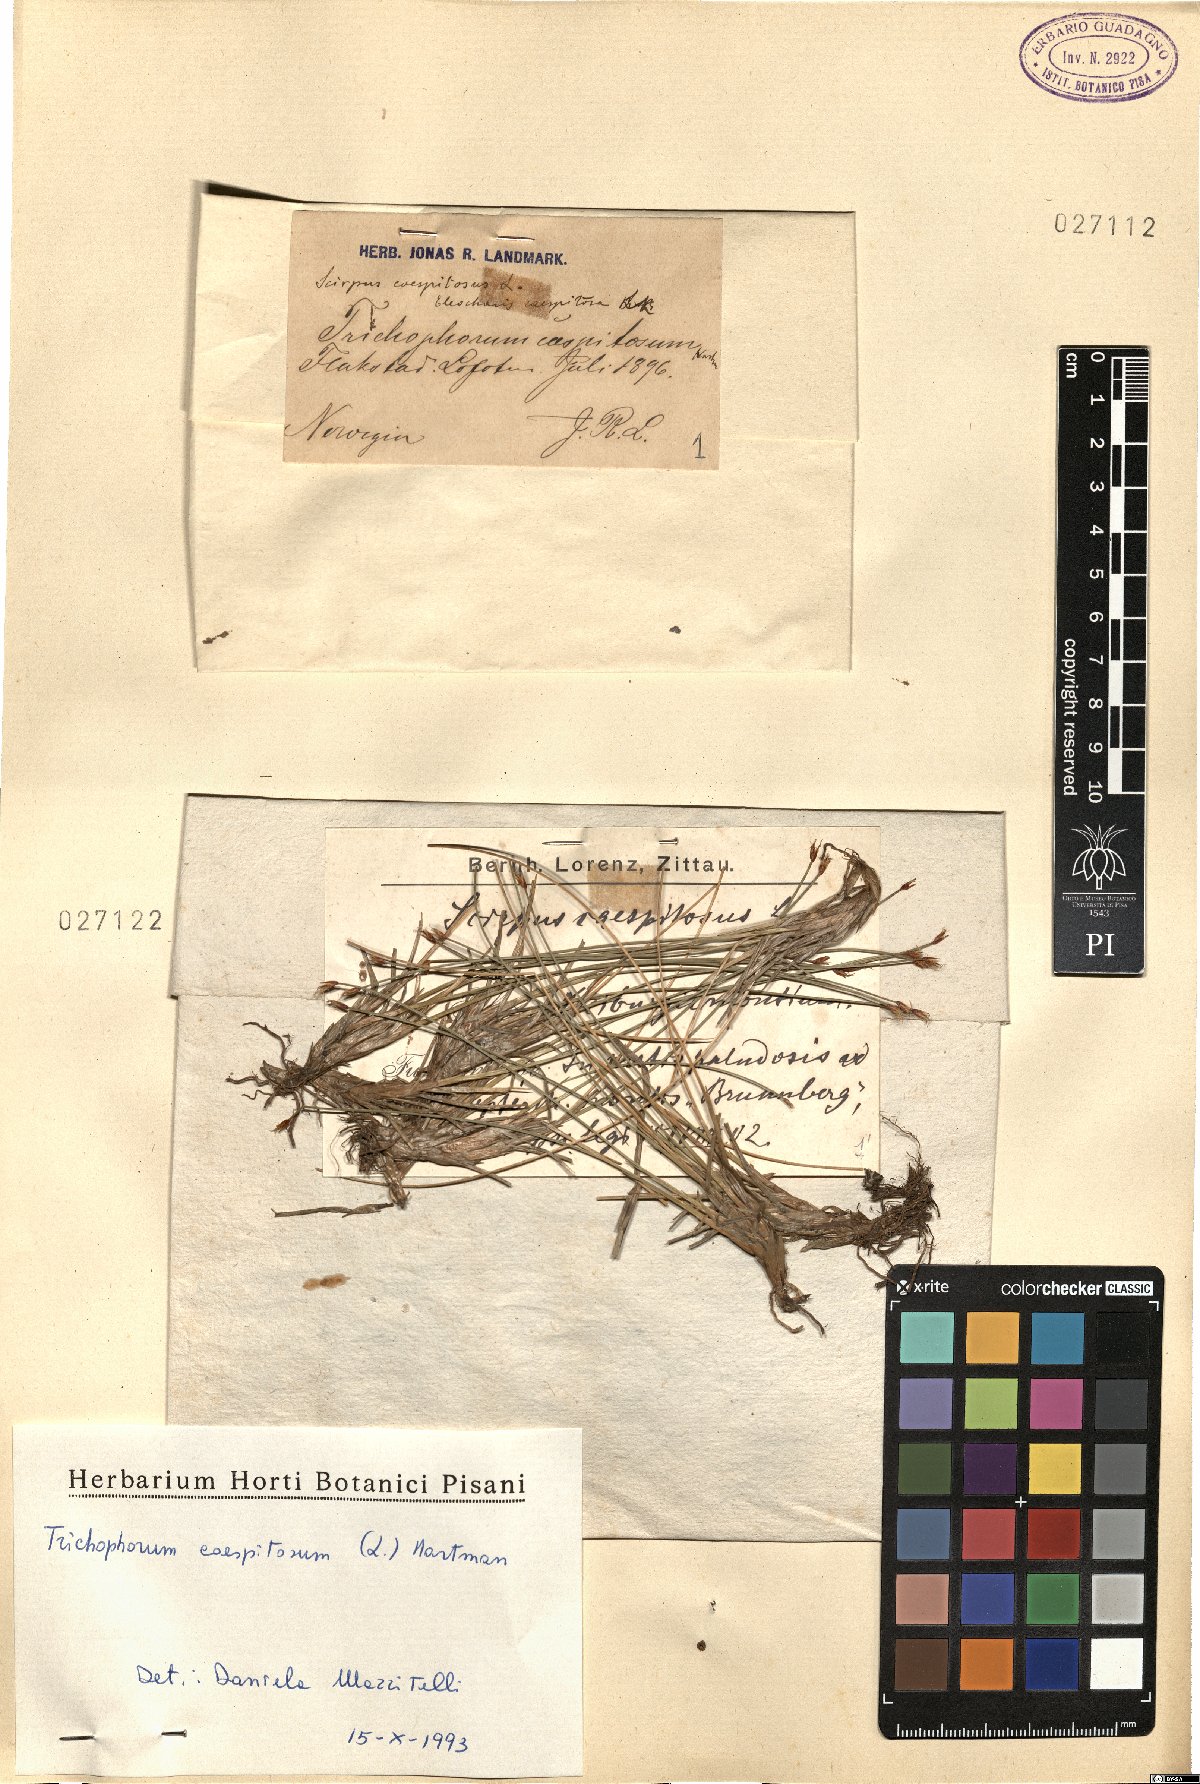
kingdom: Plantae
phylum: Tracheophyta
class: Liliopsida
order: Poales
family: Cyperaceae
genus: Trichophorum
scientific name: Trichophorum cespitosum
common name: Cespitose bulrush
